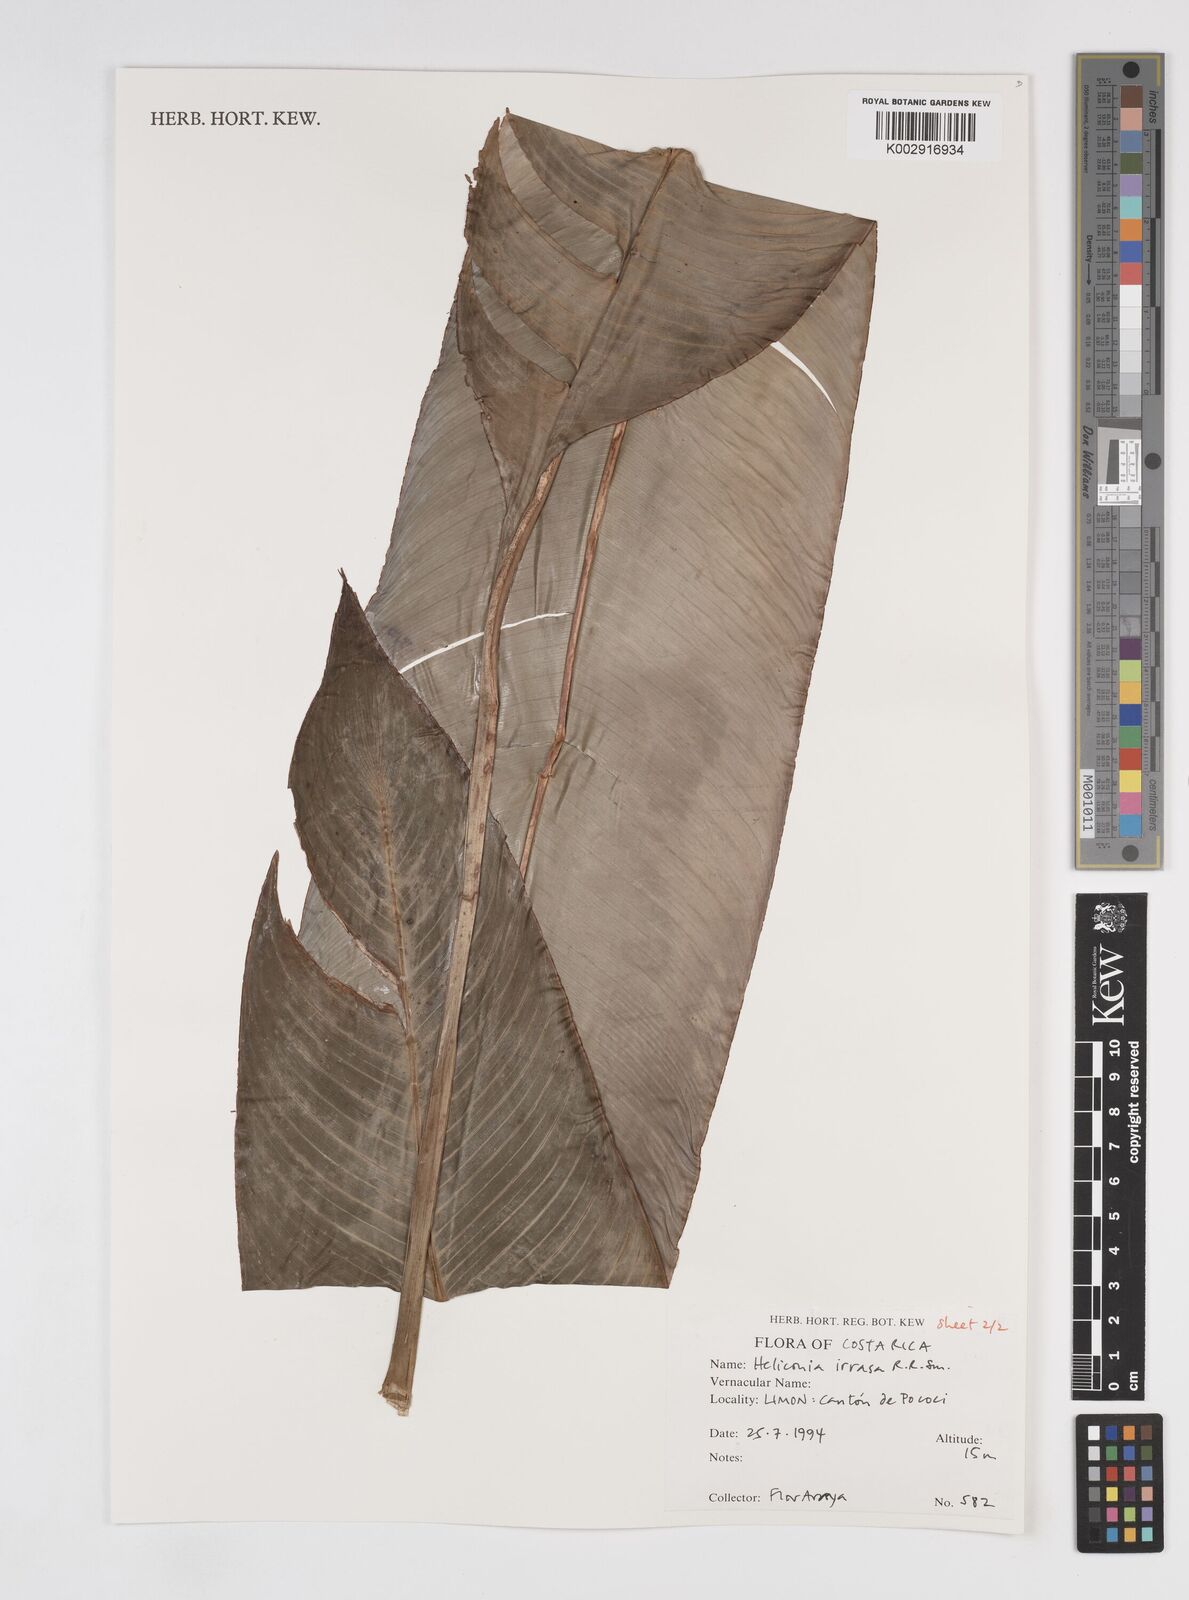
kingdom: Plantae
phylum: Tracheophyta
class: Liliopsida
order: Zingiberales
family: Heliconiaceae
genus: Heliconia
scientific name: Heliconia irrasa
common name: Wild plantain
